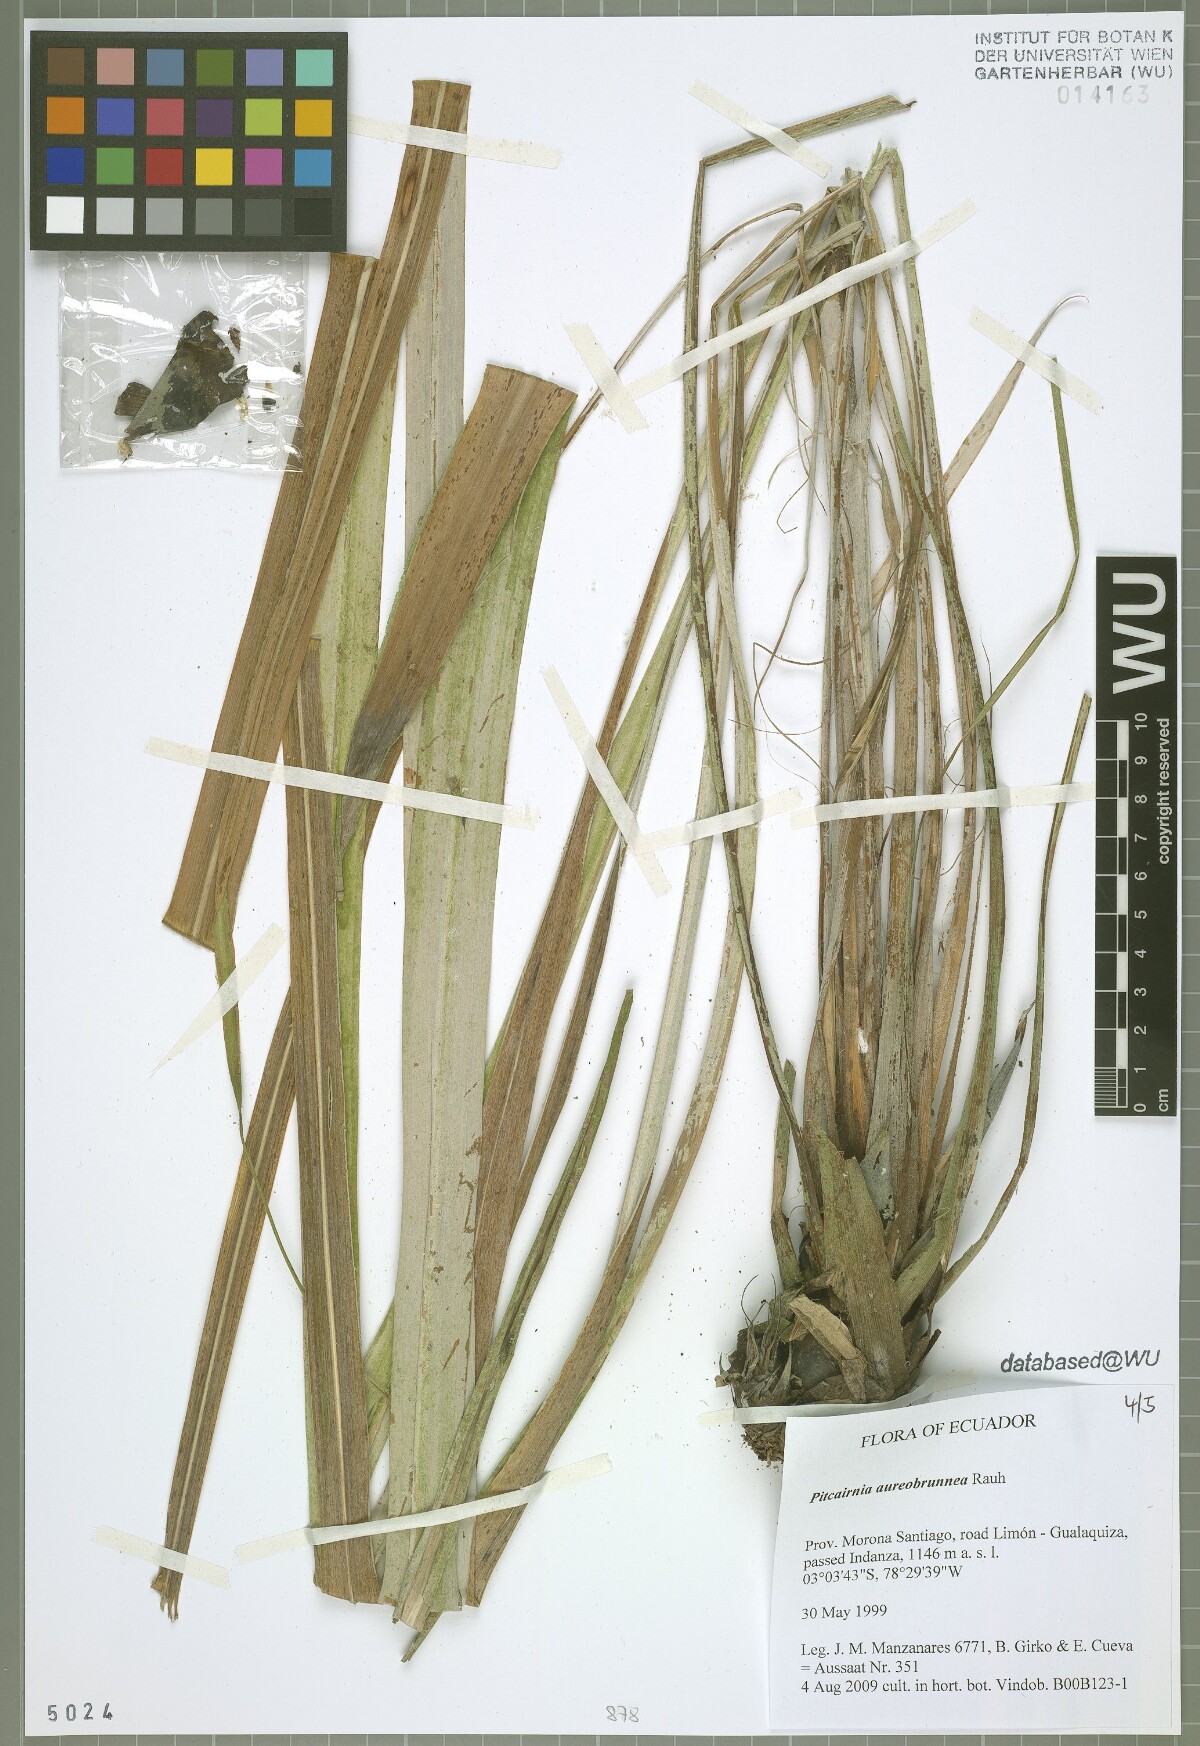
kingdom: Plantae
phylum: Tracheophyta
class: Liliopsida
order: Poales
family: Bromeliaceae
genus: Pitcairnia
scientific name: Pitcairnia aureobrunnea
